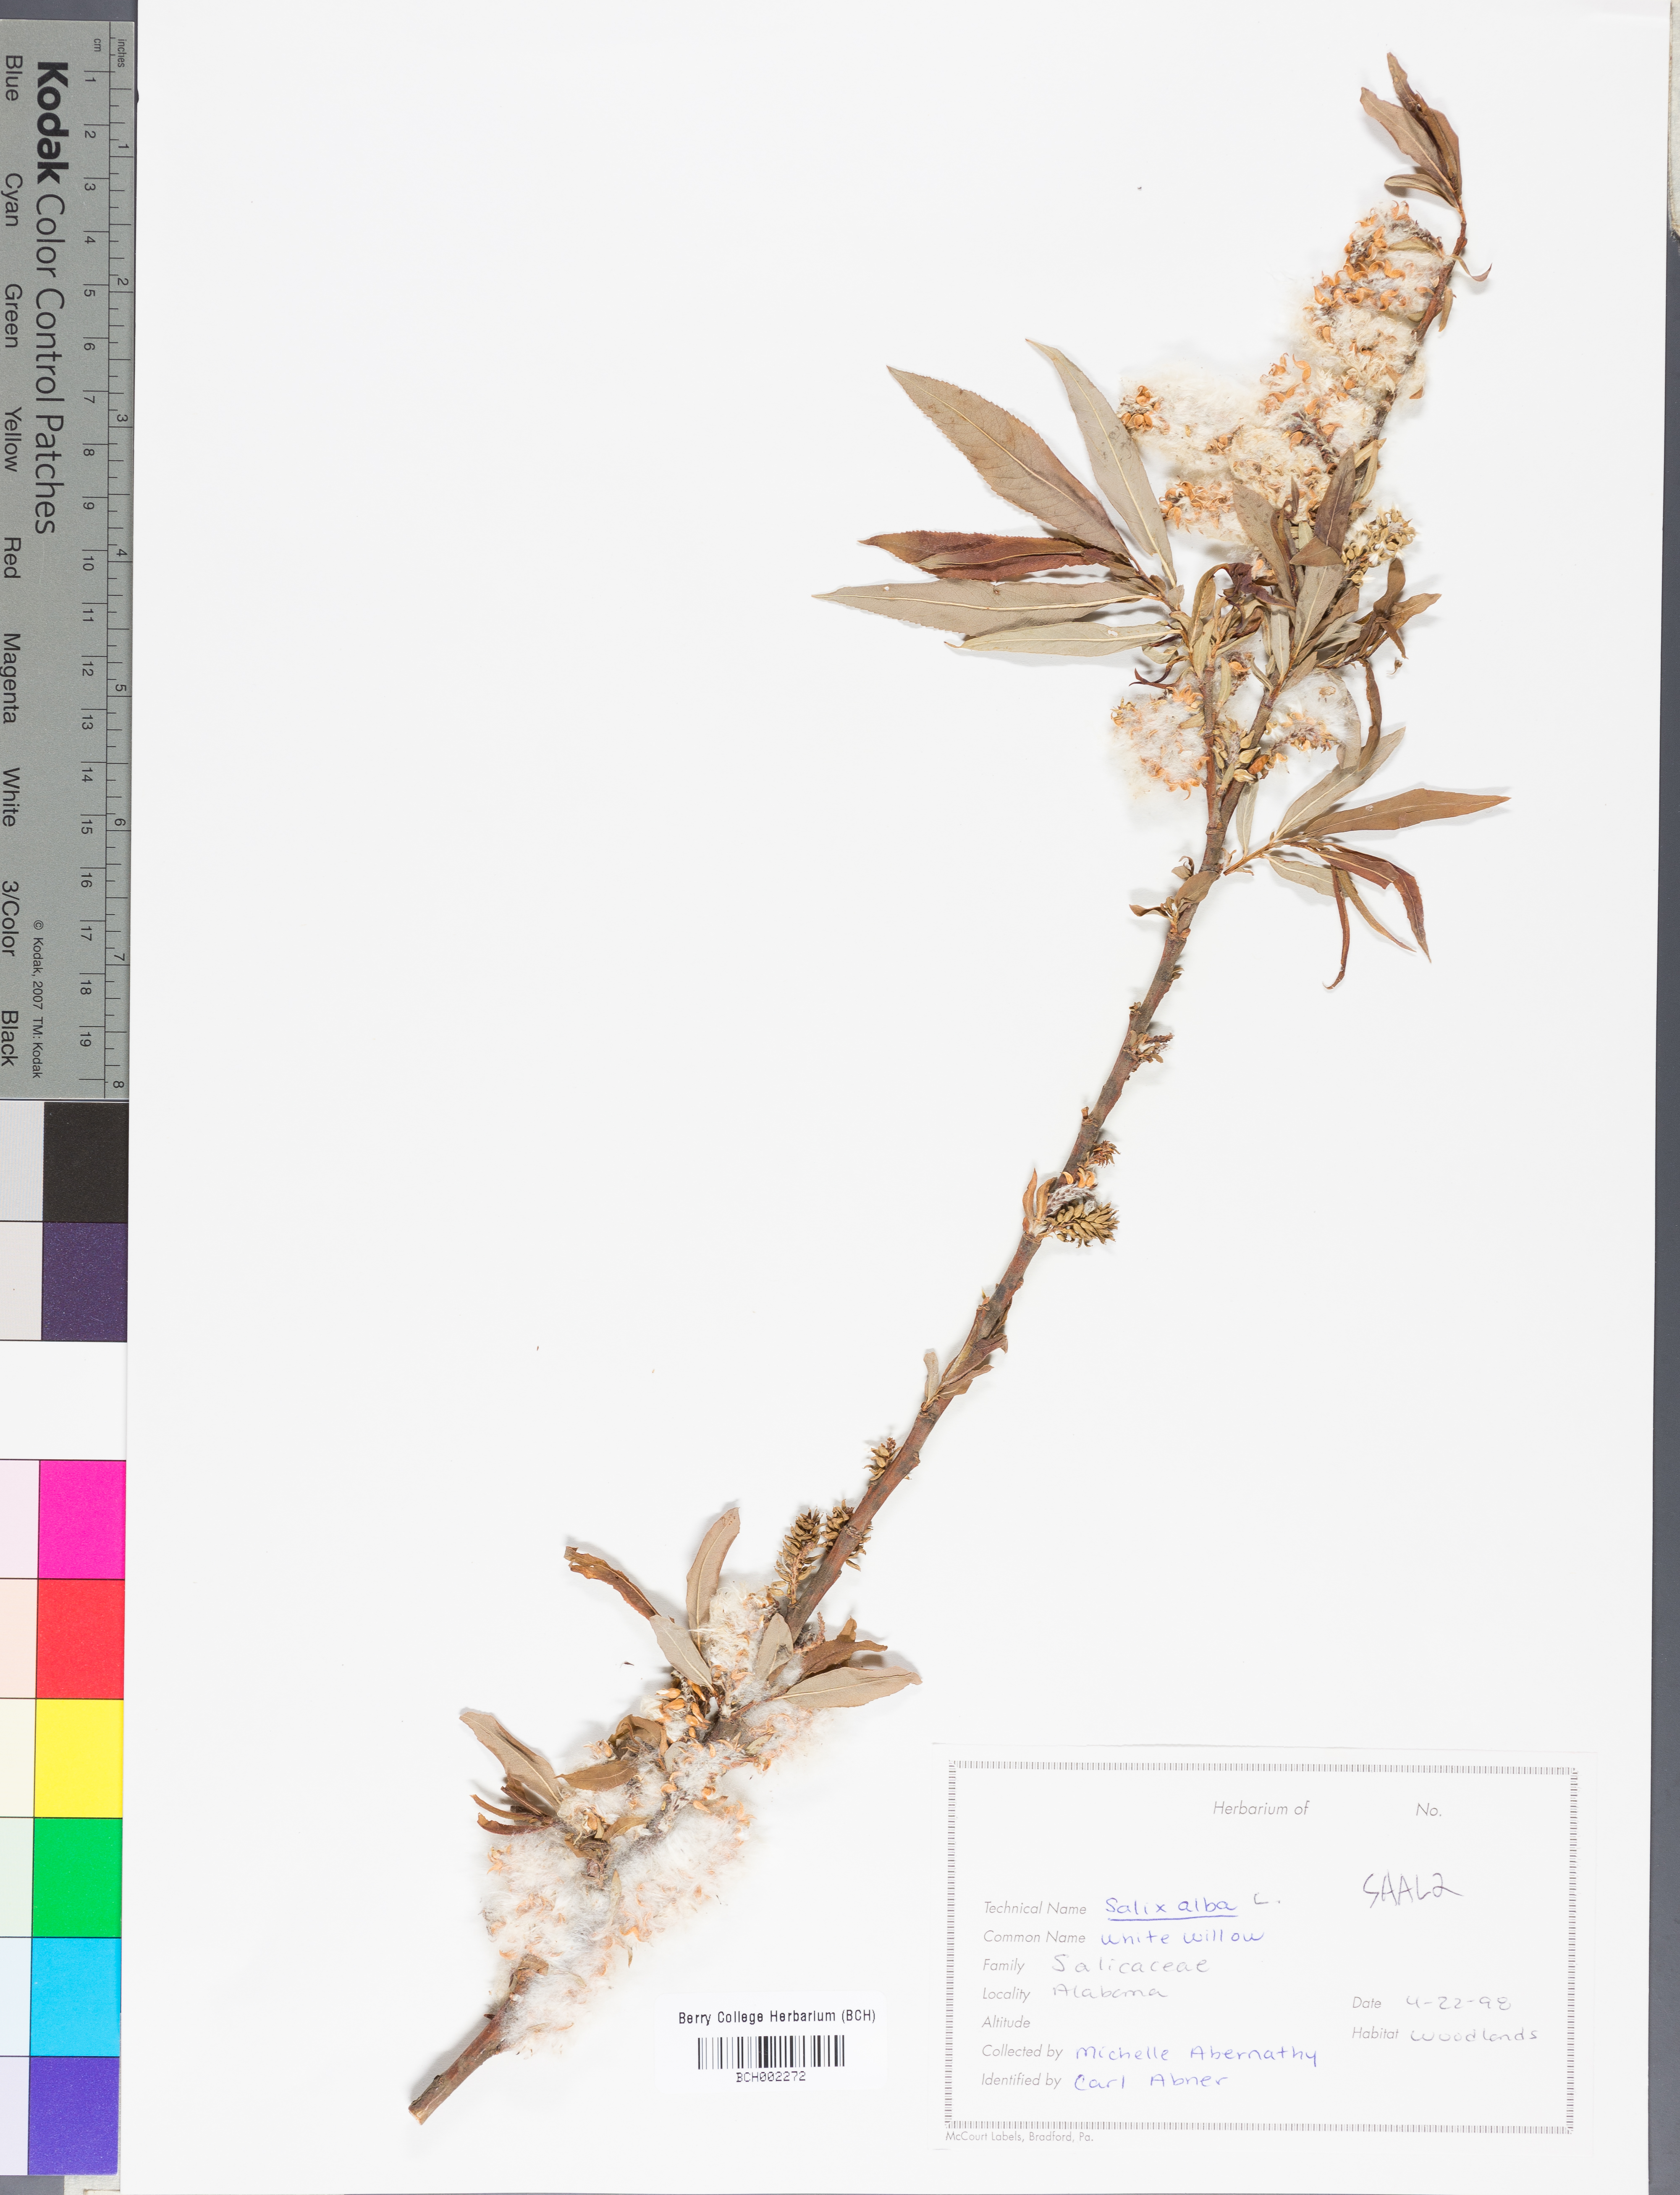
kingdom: Plantae
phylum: Tracheophyta
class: Magnoliopsida
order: Malpighiales
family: Salicaceae
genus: Salix
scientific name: Salix alba
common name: White willow
